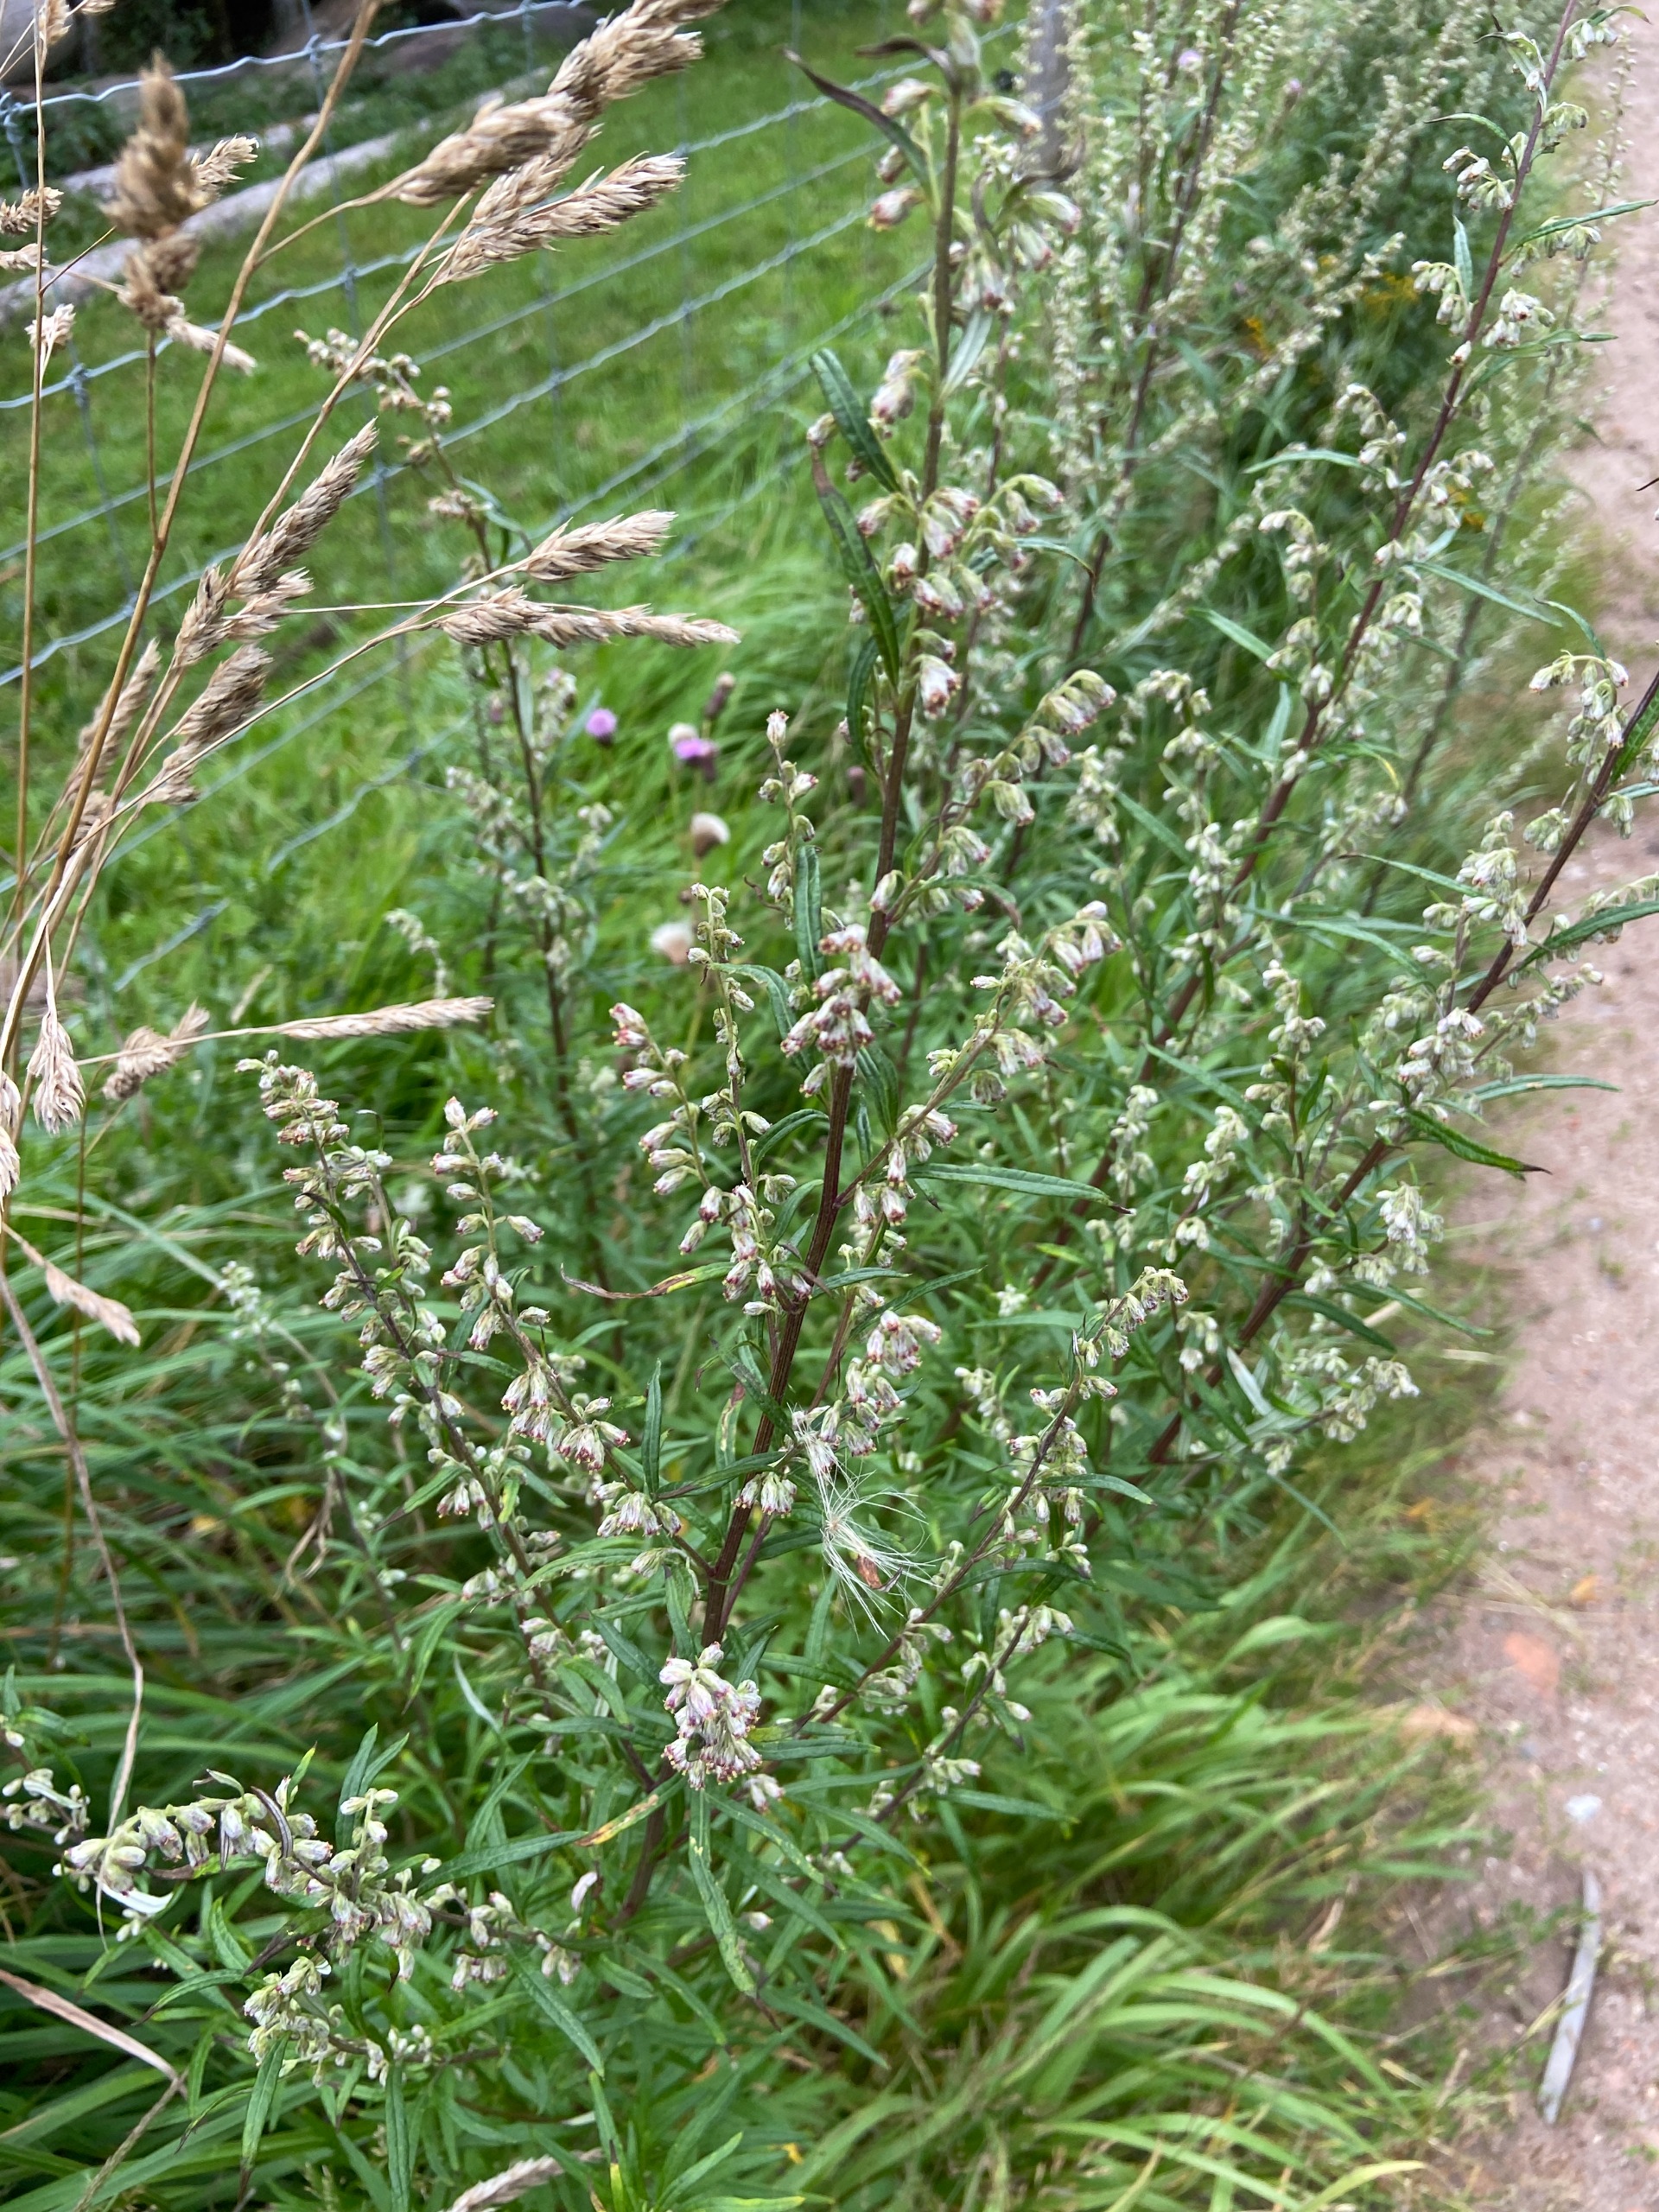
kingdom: Plantae
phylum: Tracheophyta
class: Magnoliopsida
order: Asterales
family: Asteraceae
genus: Artemisia
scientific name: Artemisia vulgaris
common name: Grå-bynke
